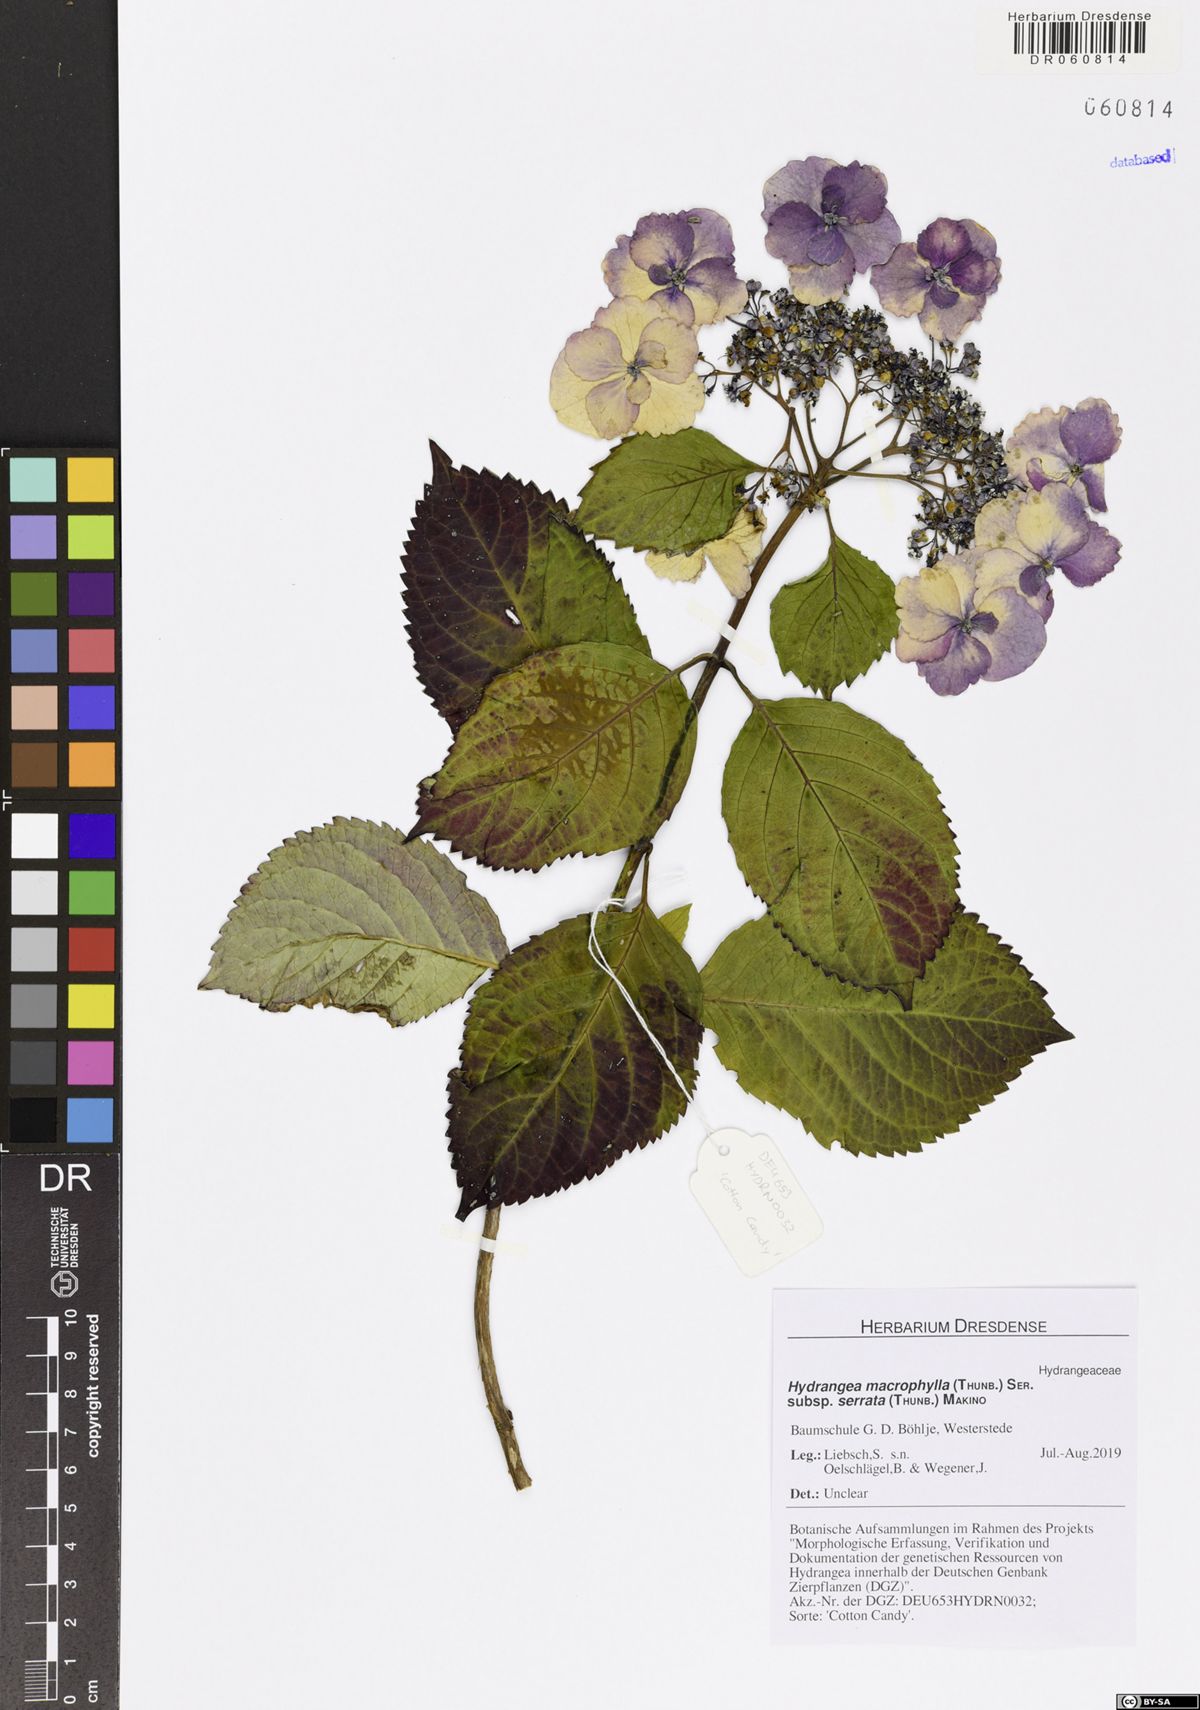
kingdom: Plantae
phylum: Tracheophyta
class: Magnoliopsida
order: Cornales
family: Hydrangeaceae
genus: Hydrangea
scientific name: Hydrangea serrata
